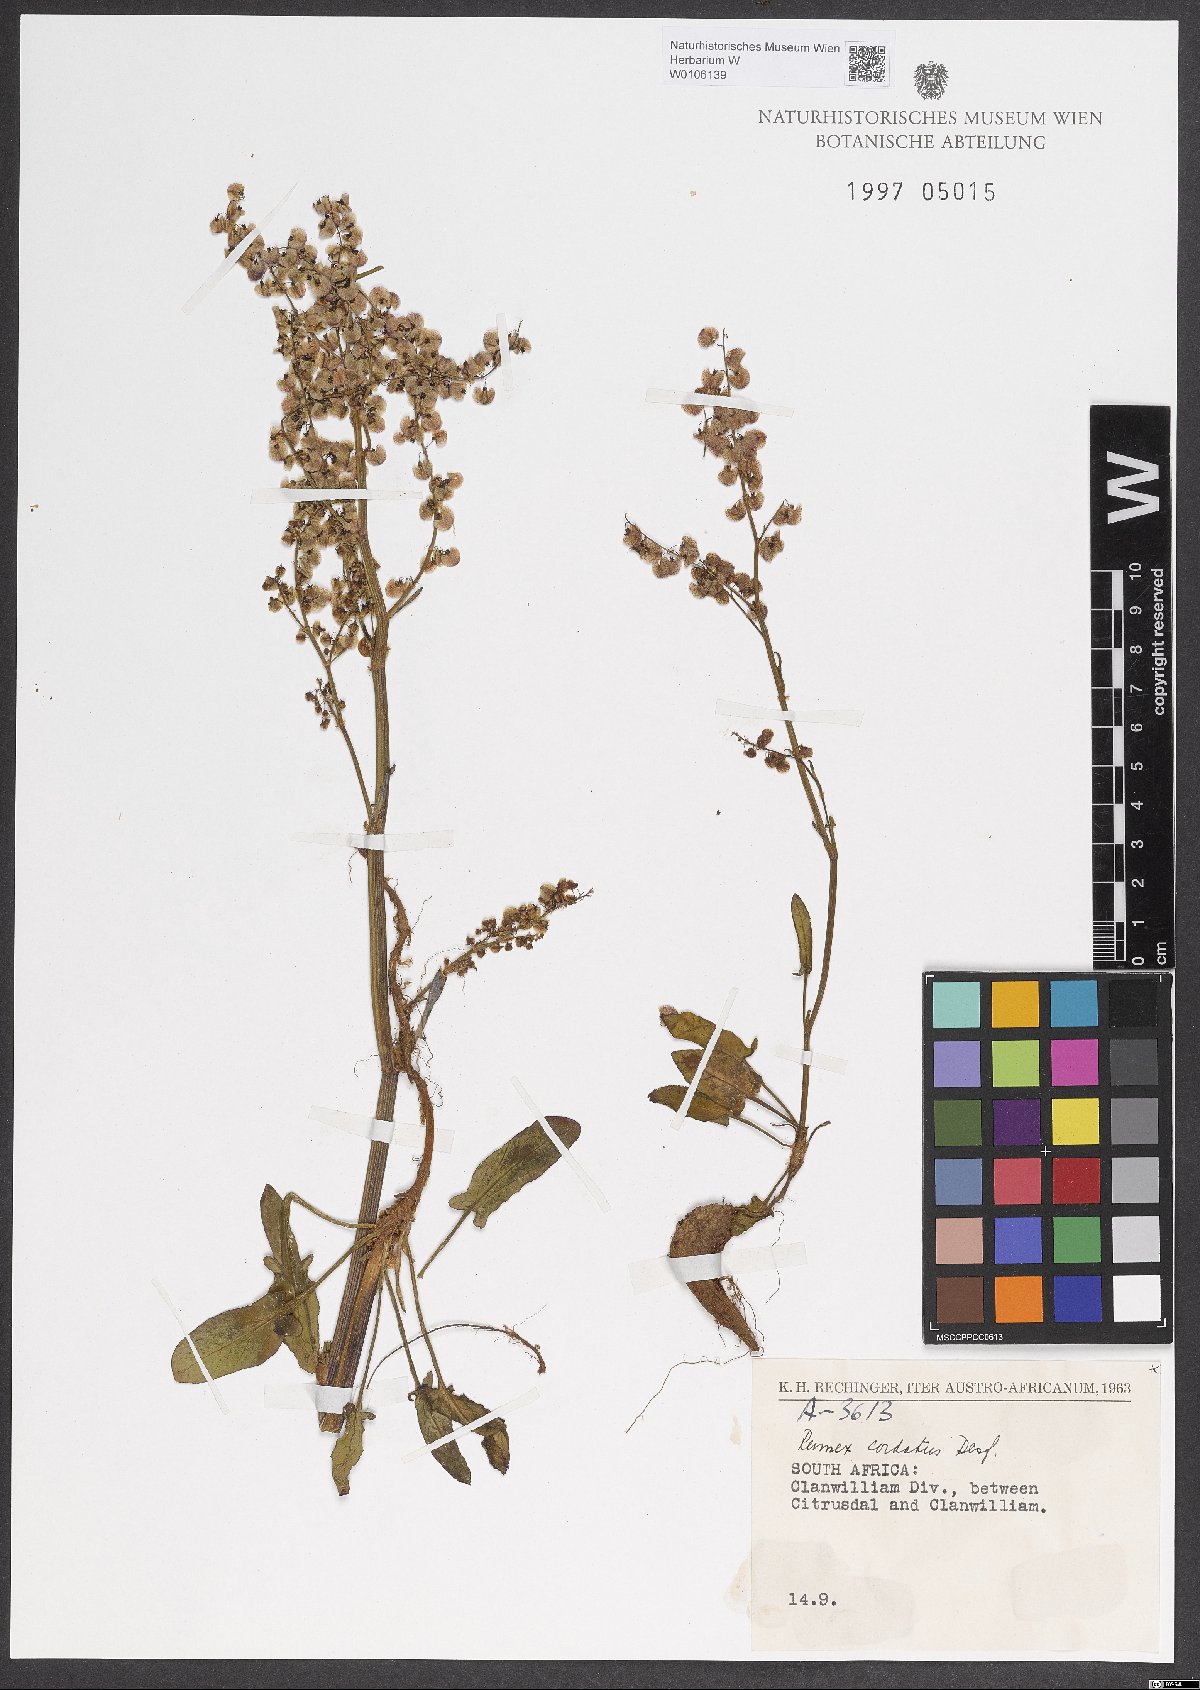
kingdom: Plantae
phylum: Tracheophyta
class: Magnoliopsida
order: Caryophyllales
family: Polygonaceae
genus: Rumex
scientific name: Rumex cordatus
